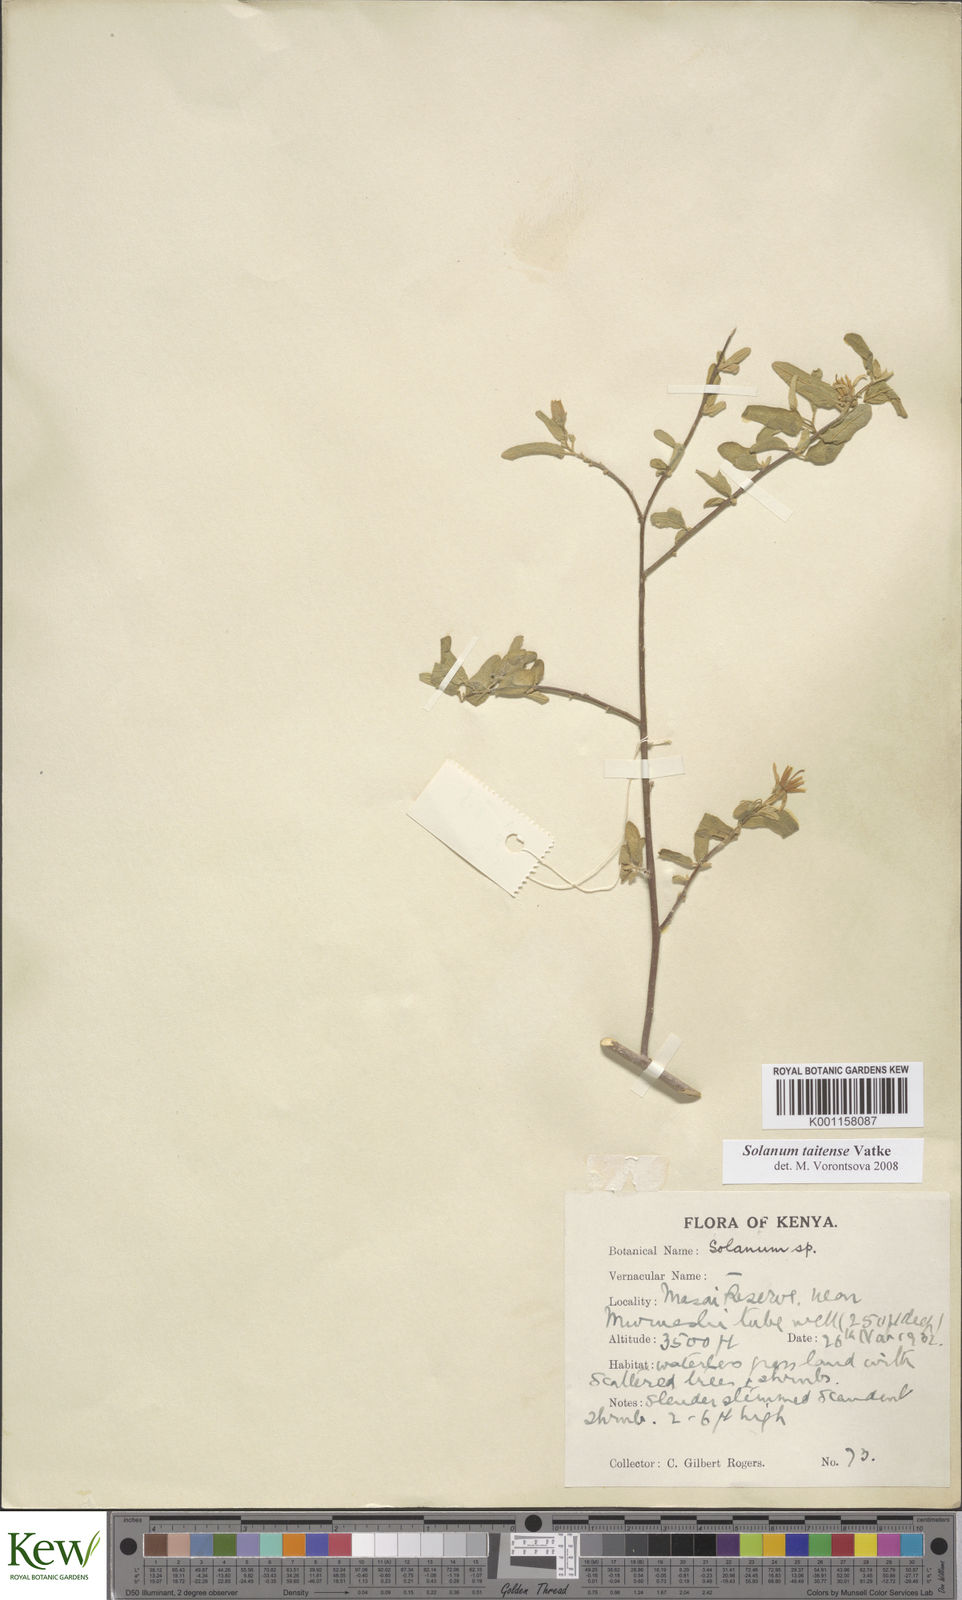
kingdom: Plantae
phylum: Tracheophyta
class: Magnoliopsida
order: Solanales
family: Solanaceae
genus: Solanum
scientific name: Solanum taitense
